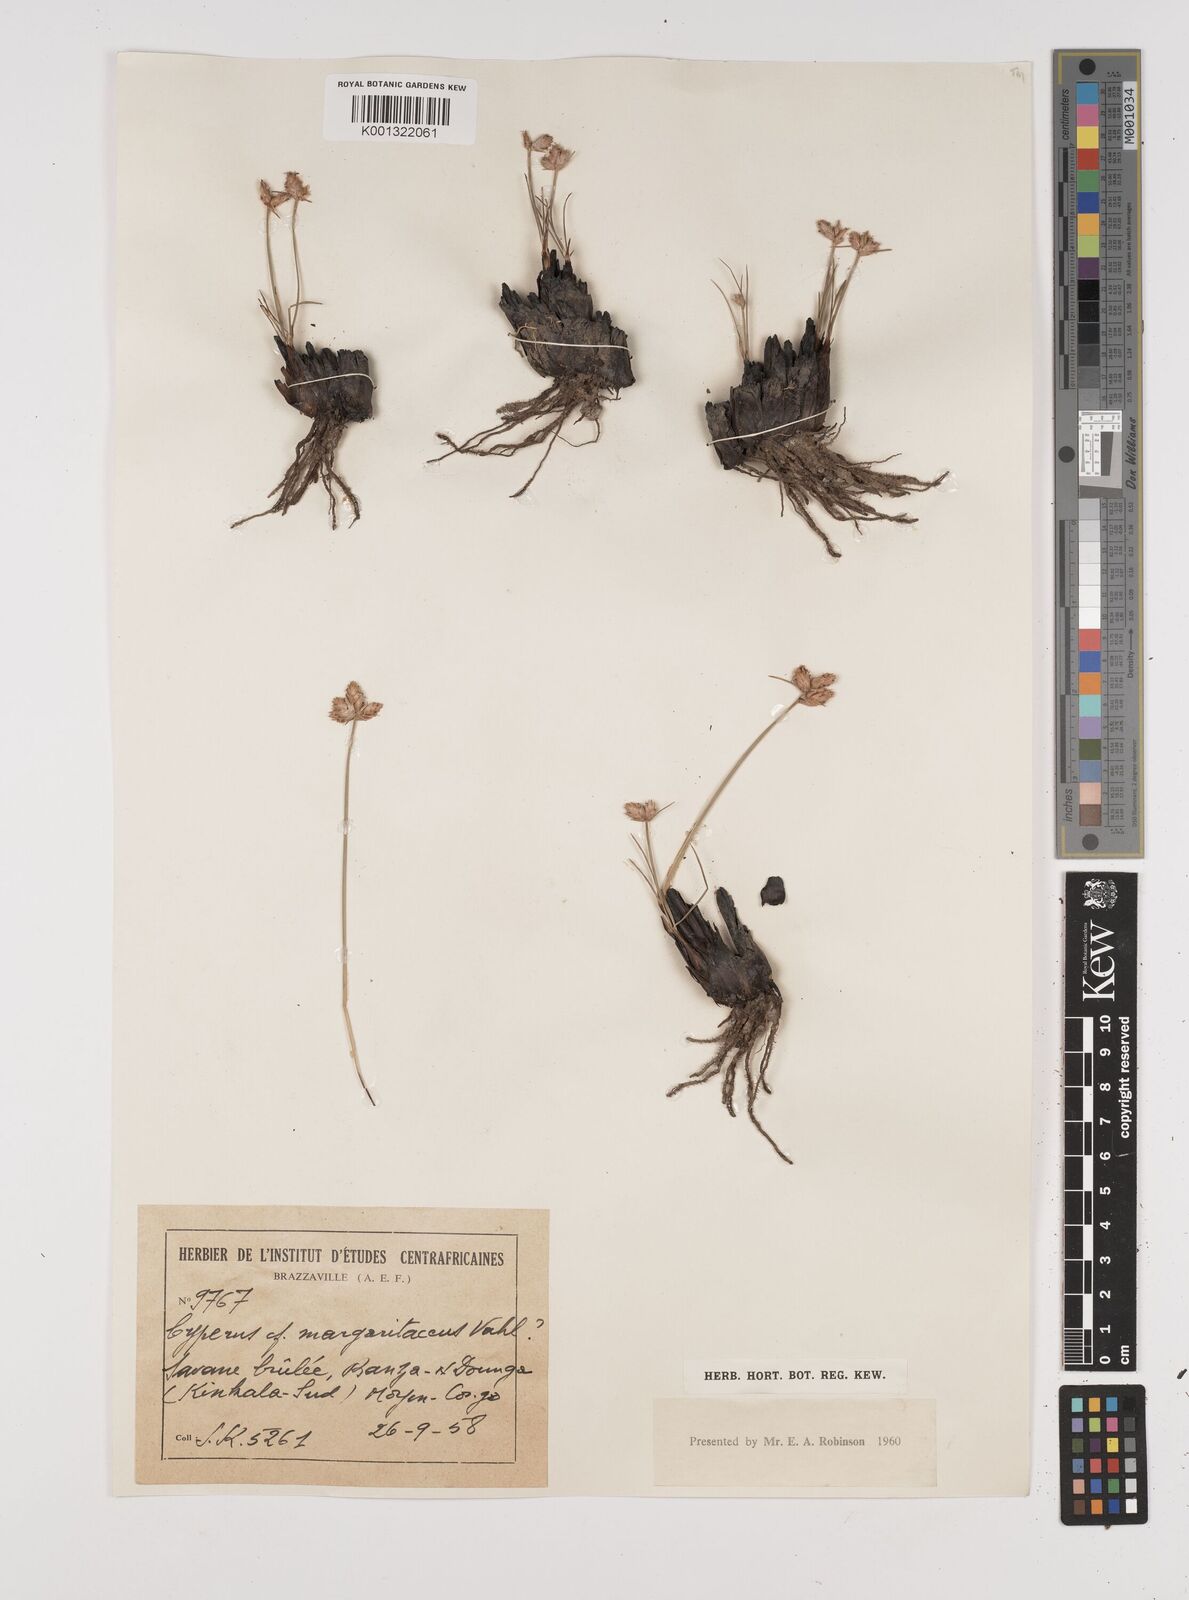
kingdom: Plantae
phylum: Tracheophyta
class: Liliopsida
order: Poales
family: Cyperaceae
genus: Cyperus
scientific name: Cyperus nduru
